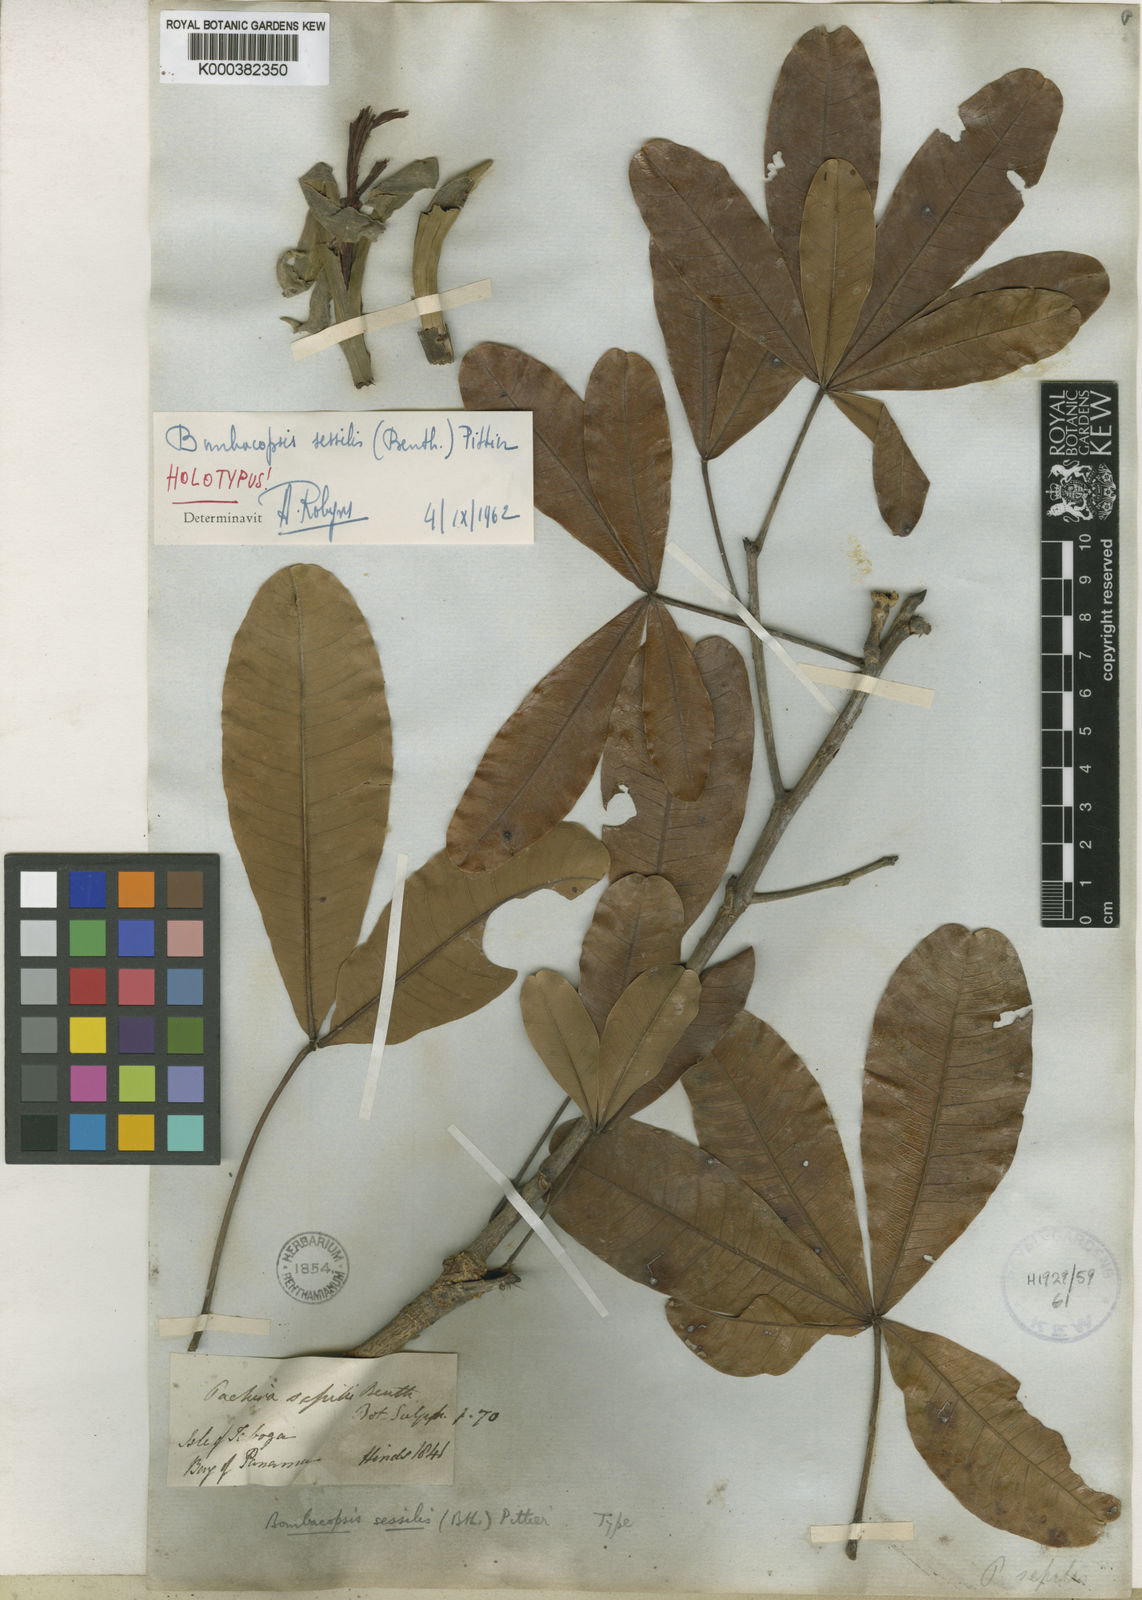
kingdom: Plantae
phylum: Tracheophyta
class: Magnoliopsida
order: Malvales
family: Malvaceae
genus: Pachira
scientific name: Pachira sessilis
